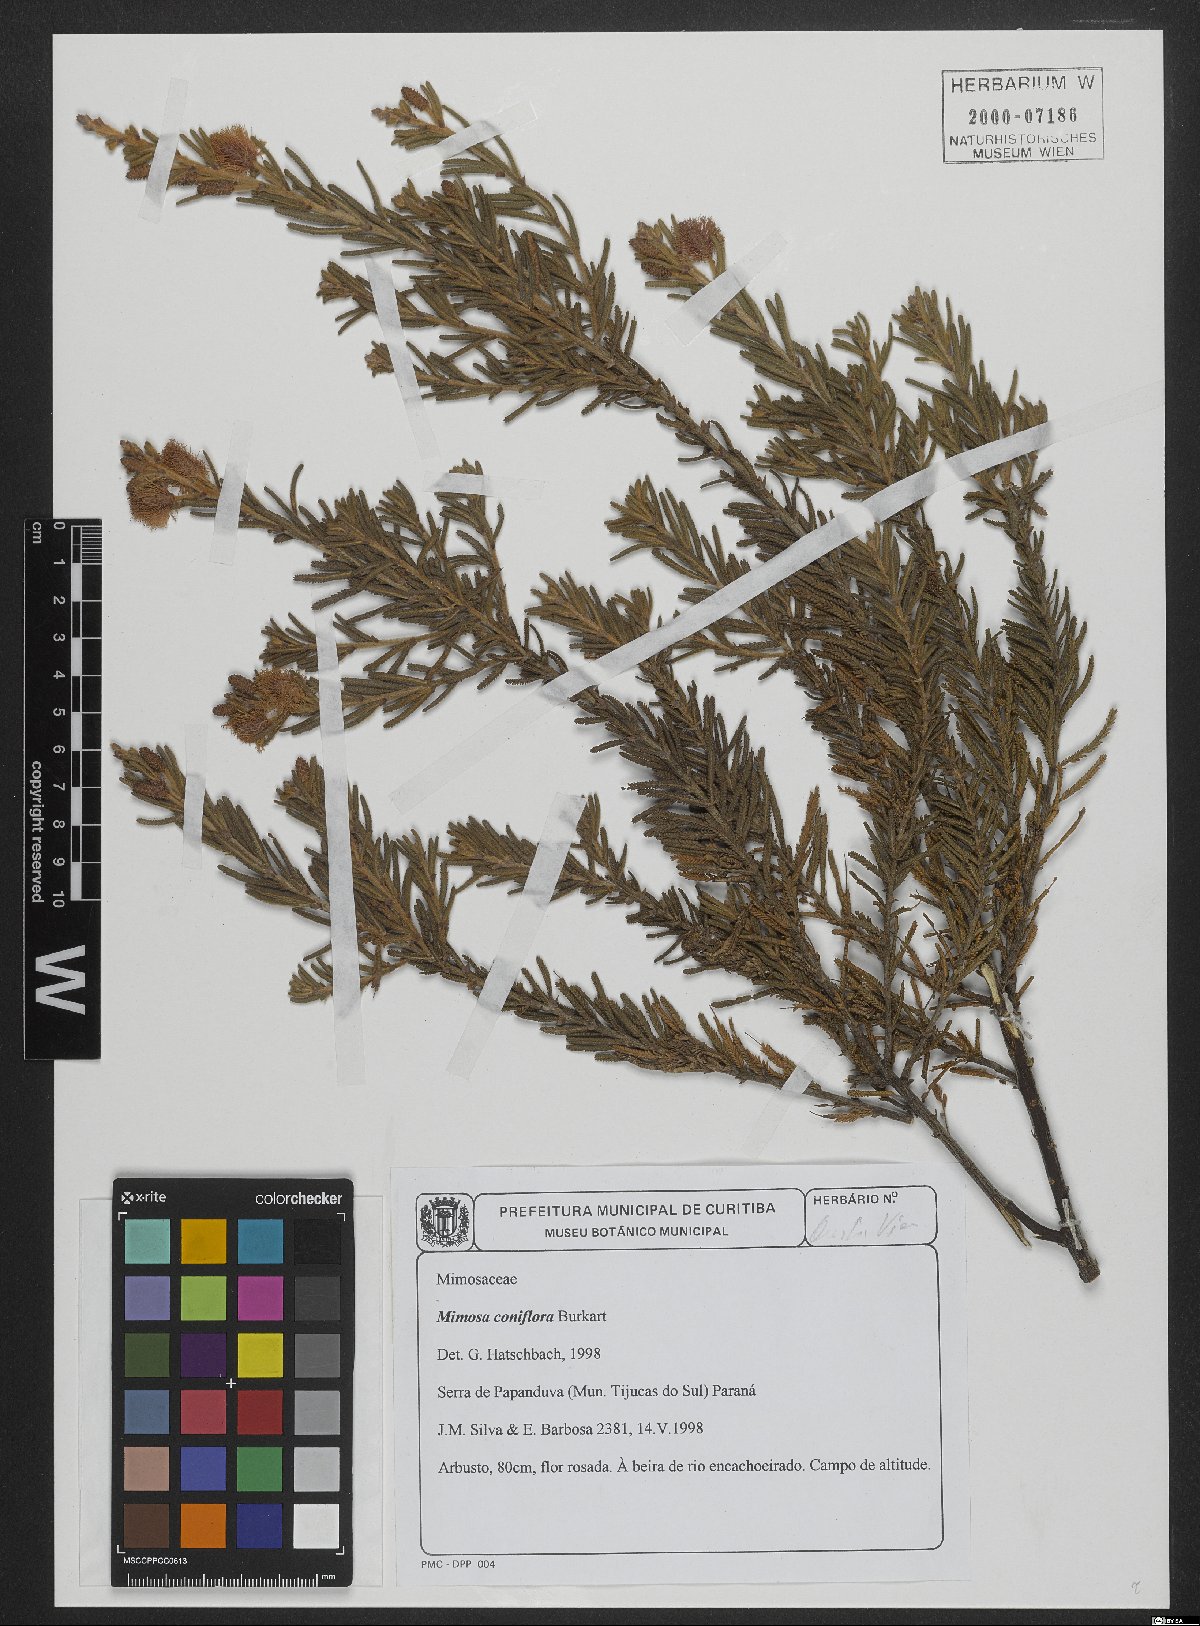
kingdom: Plantae
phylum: Tracheophyta
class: Magnoliopsida
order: Fabales
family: Fabaceae
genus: Mimosa
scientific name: Mimosa coniflora
